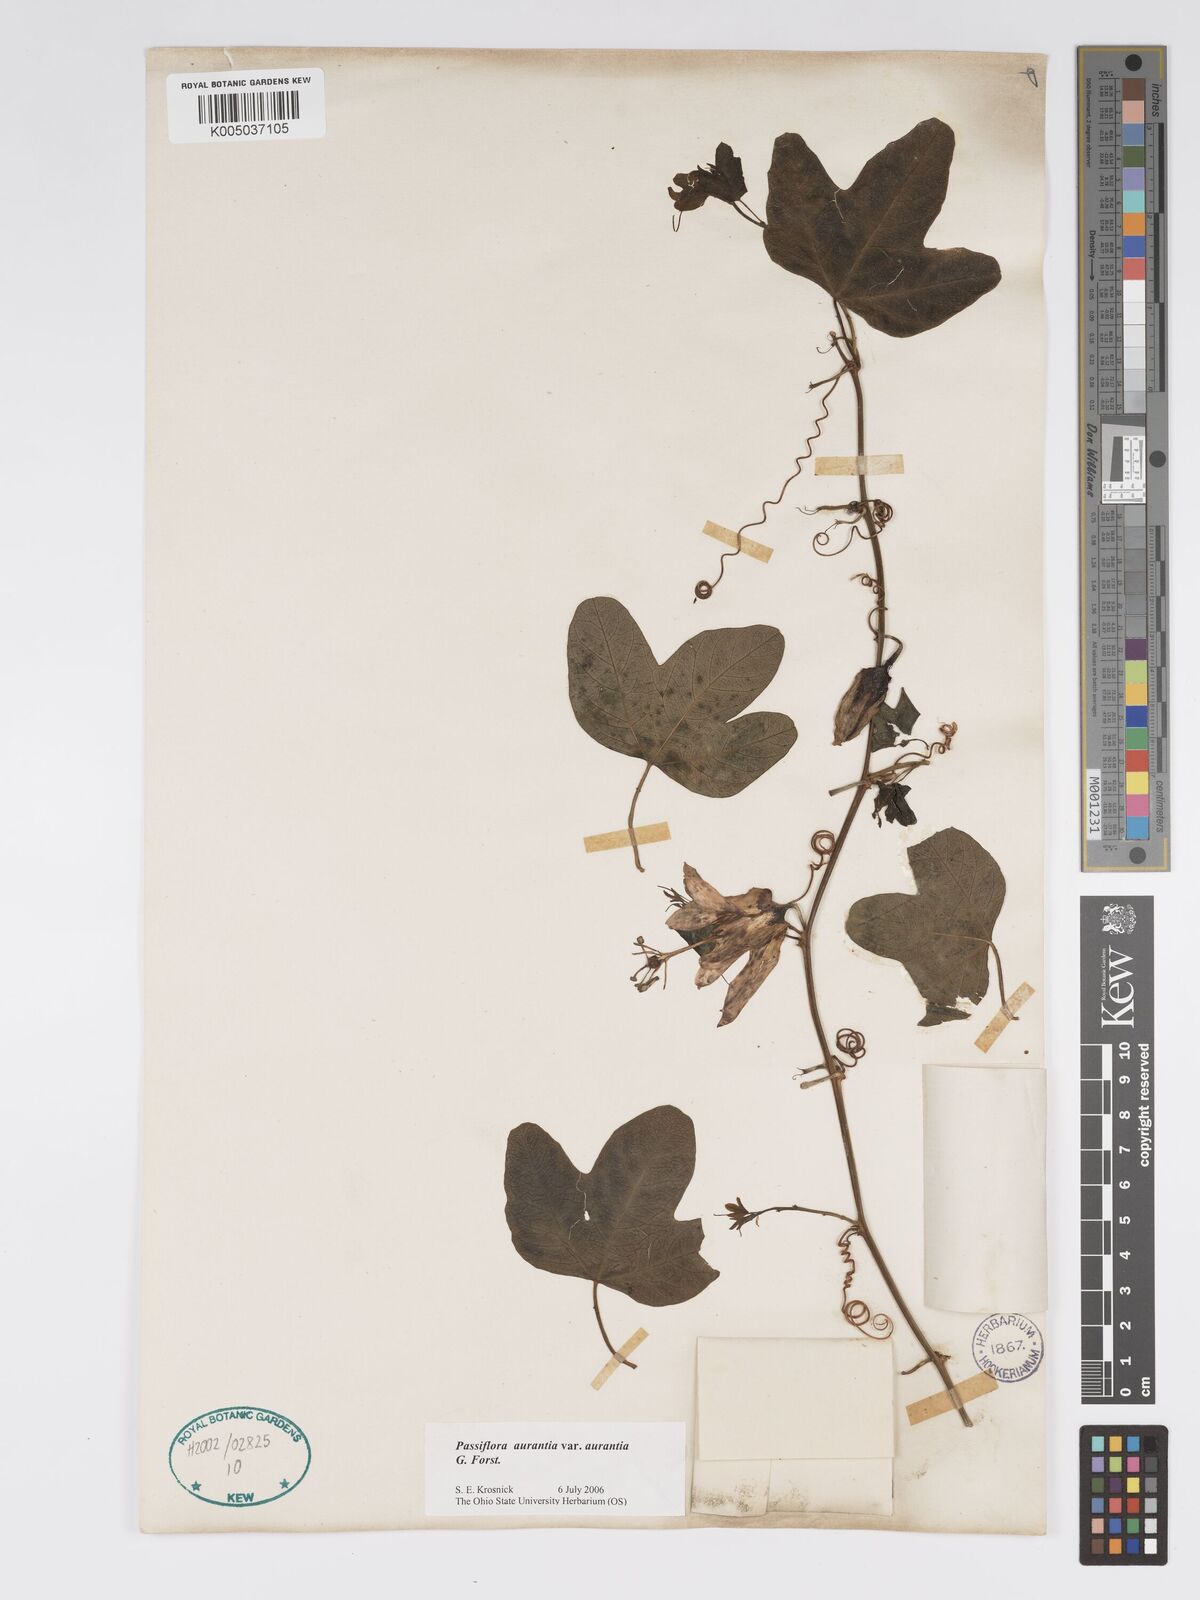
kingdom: Plantae
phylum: Tracheophyta
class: Magnoliopsida
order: Malpighiales
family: Passifloraceae
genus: Passiflora
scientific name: Passiflora aurantia
